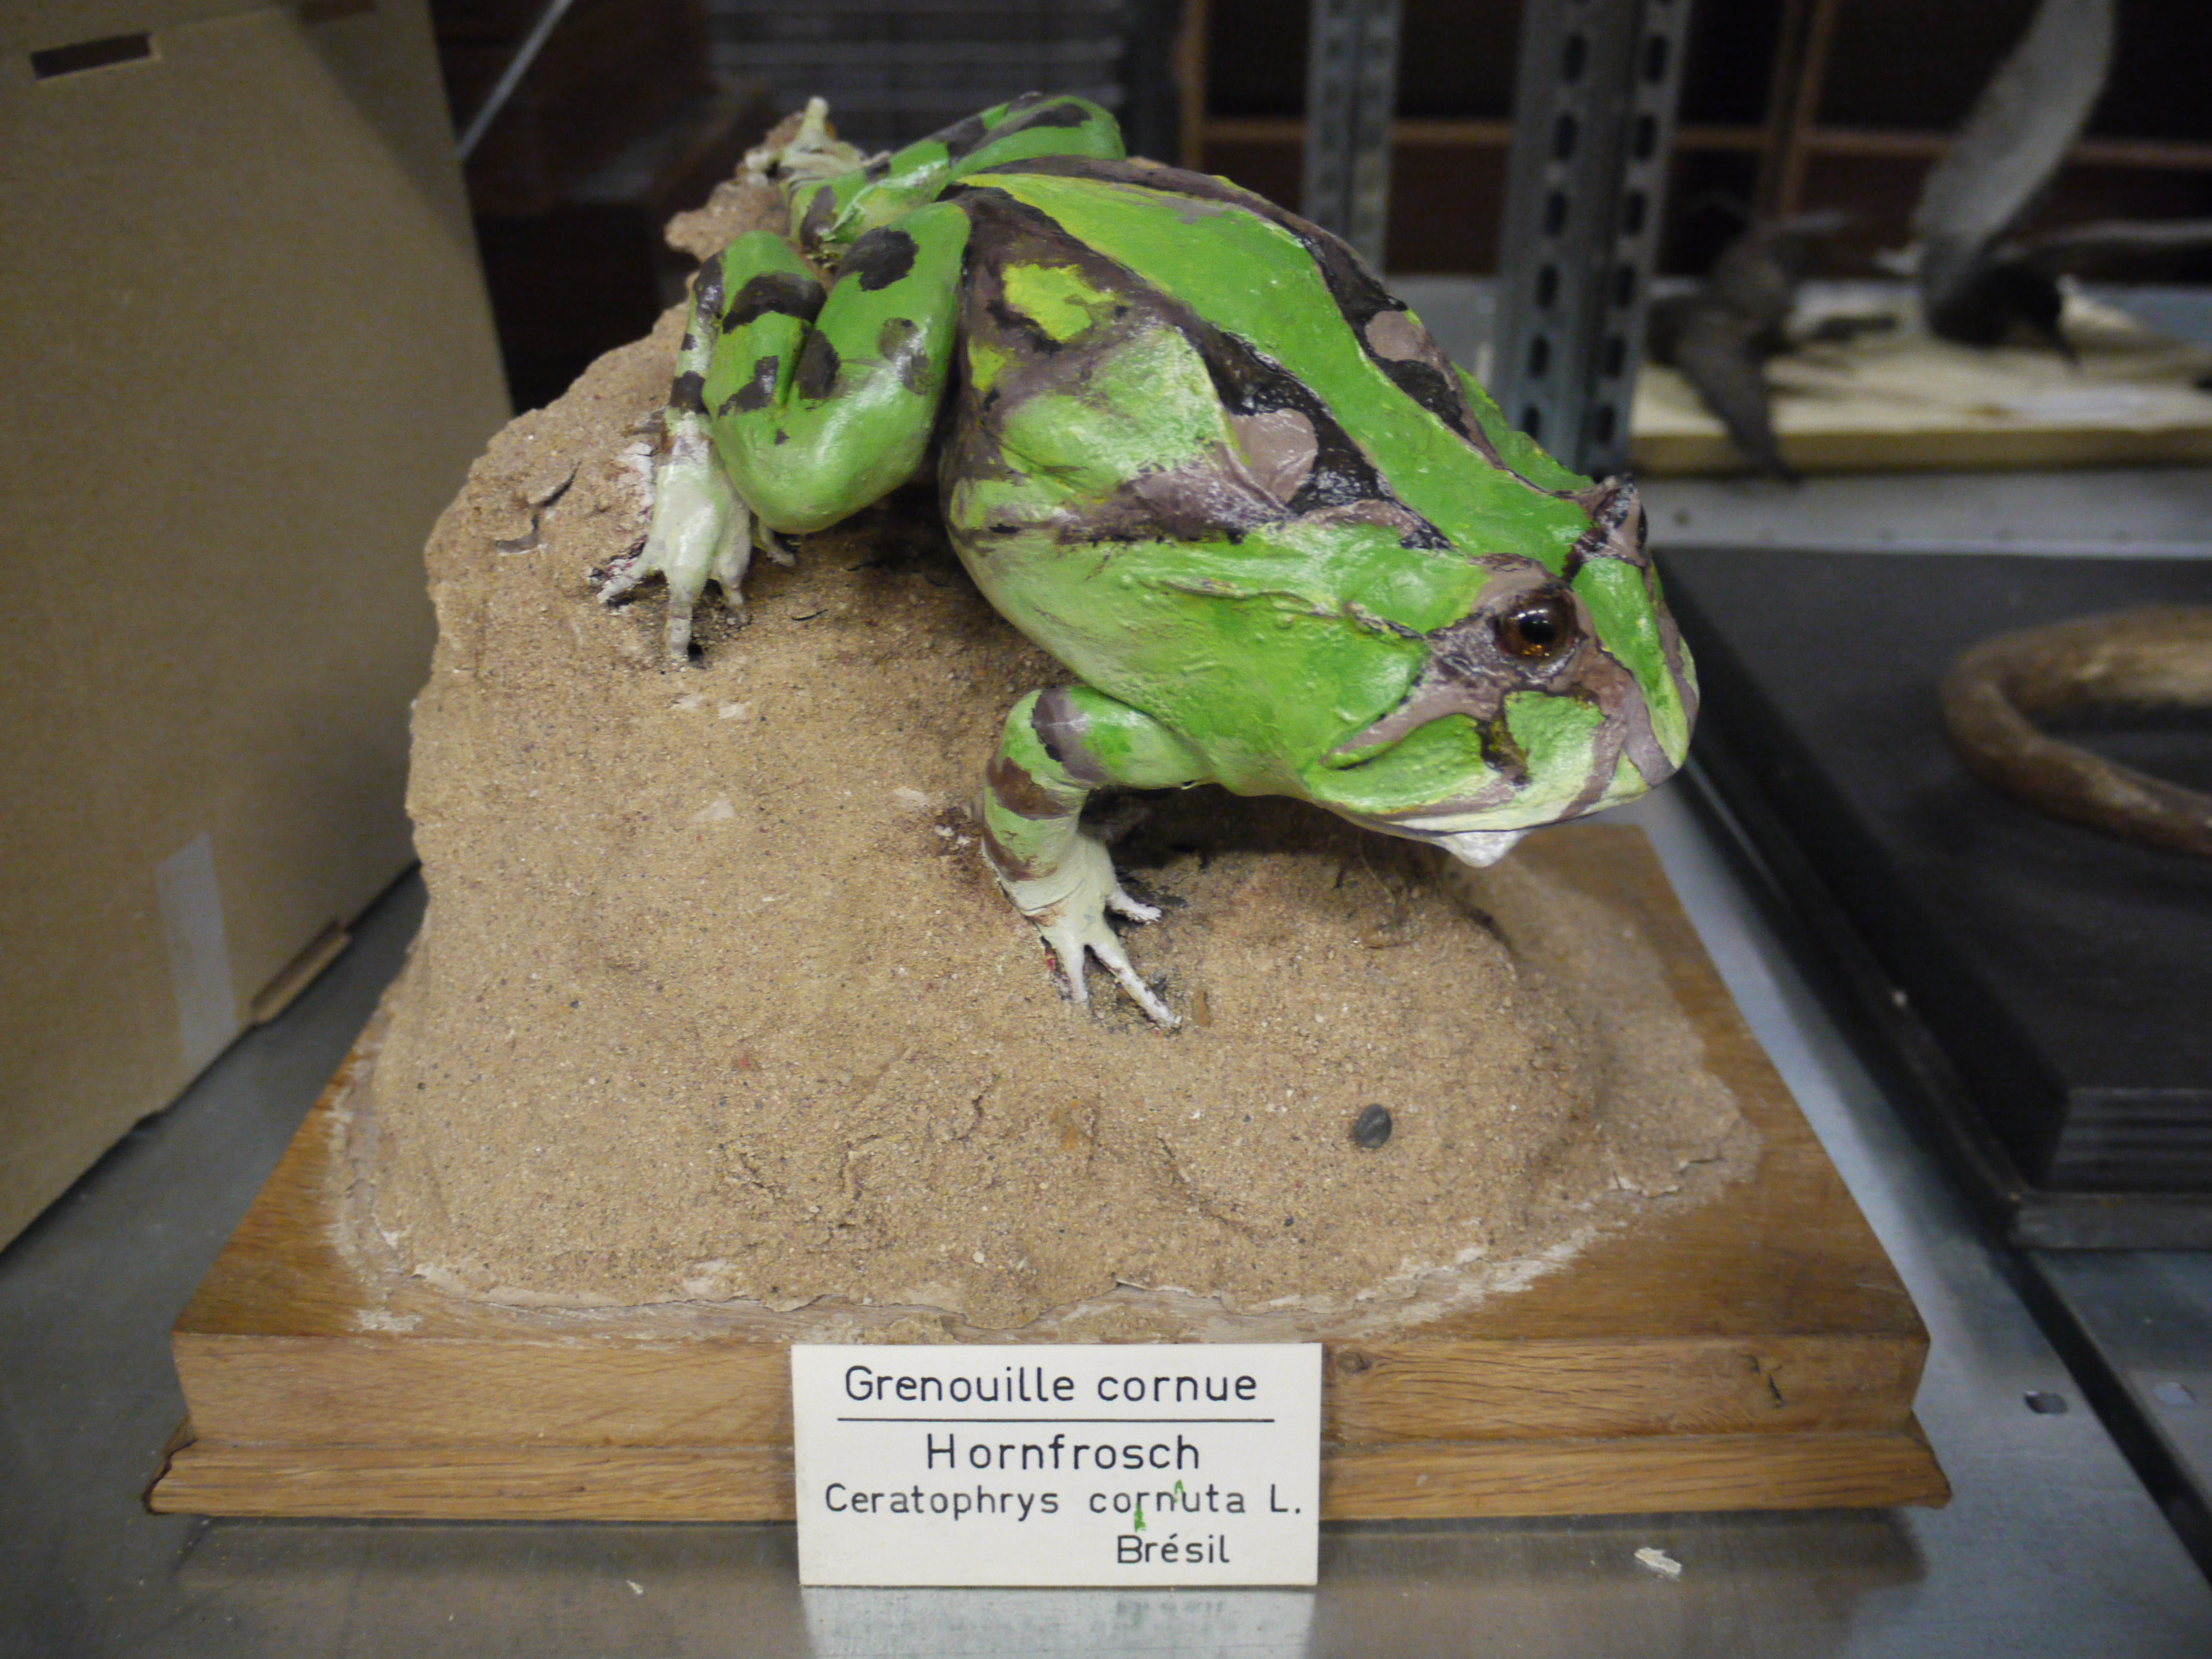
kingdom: Animalia
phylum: Chordata
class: Amphibia
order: Anura
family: Ceratophryidae
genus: Ceratophrys
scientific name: Ceratophrys cornuta
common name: Amazonian horned frog
